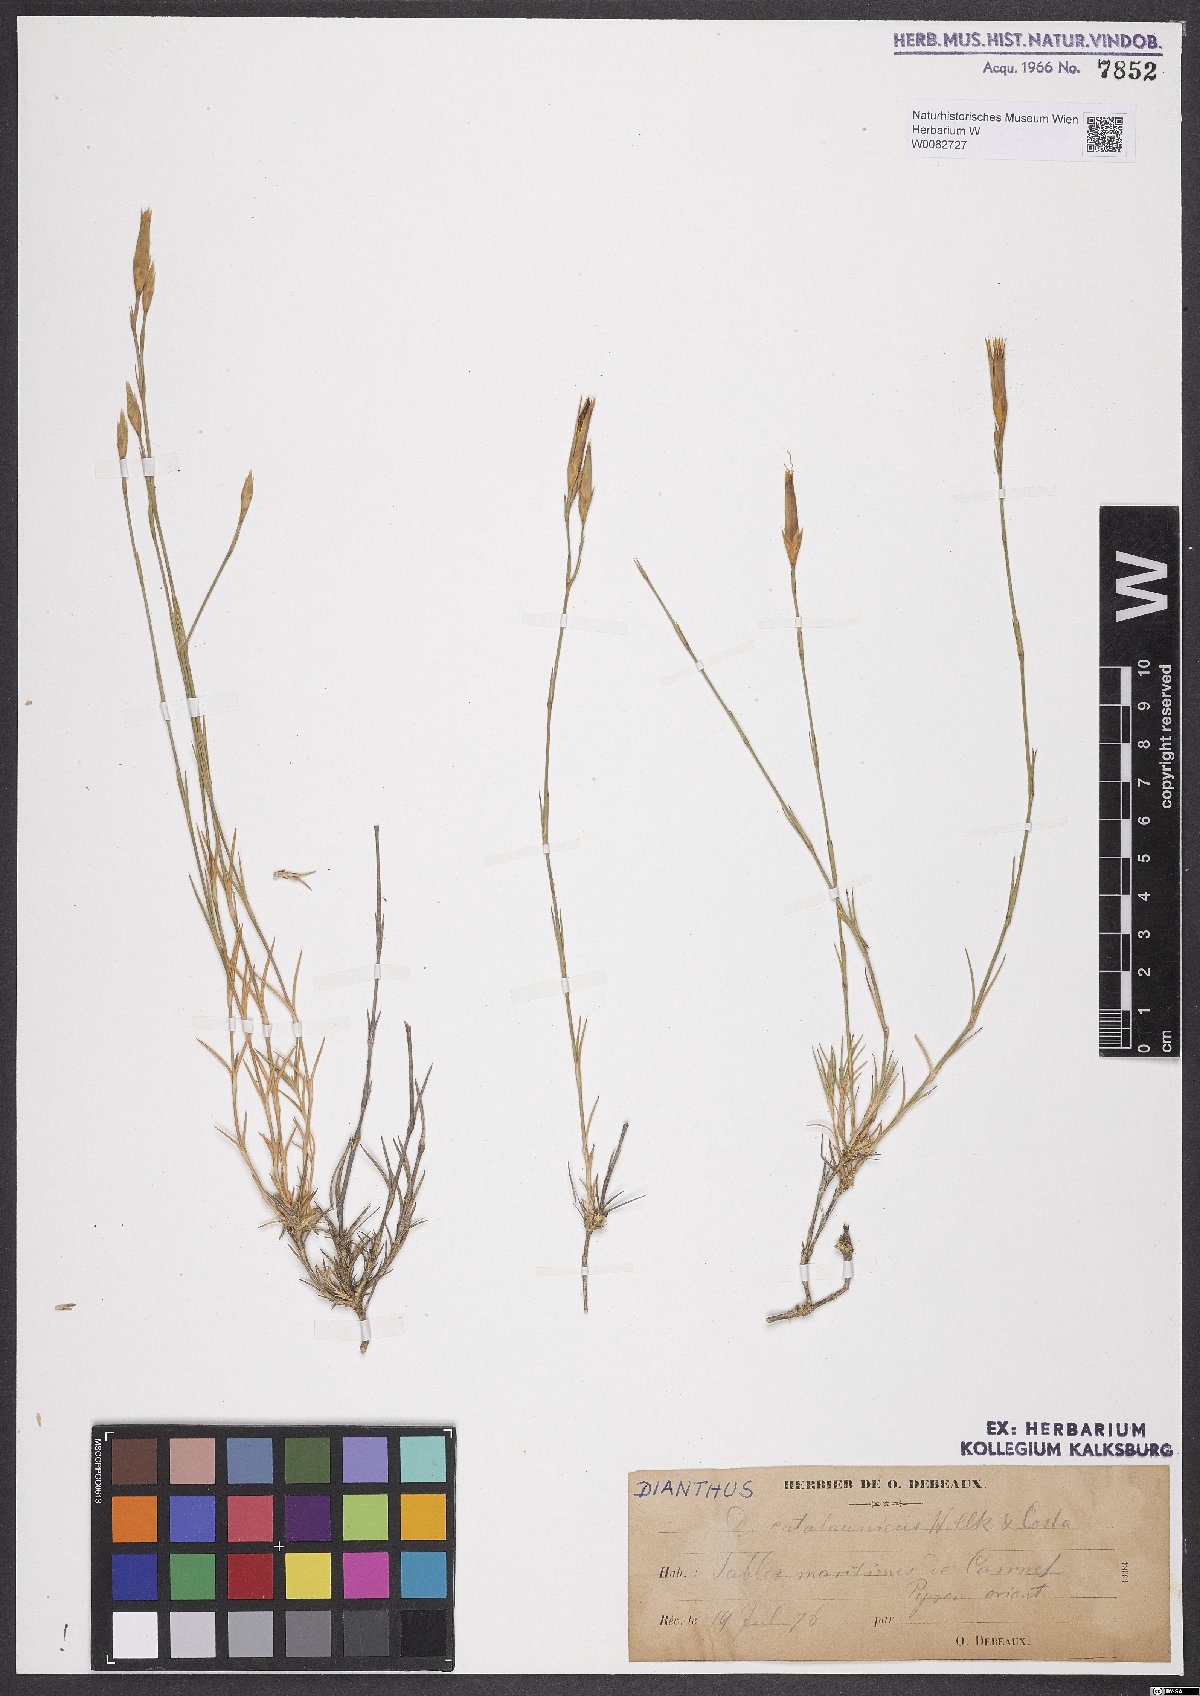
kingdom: Plantae
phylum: Tracheophyta
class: Magnoliopsida
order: Caryophyllales
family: Caryophyllaceae
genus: Dianthus
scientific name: Dianthus pyrenaicus
